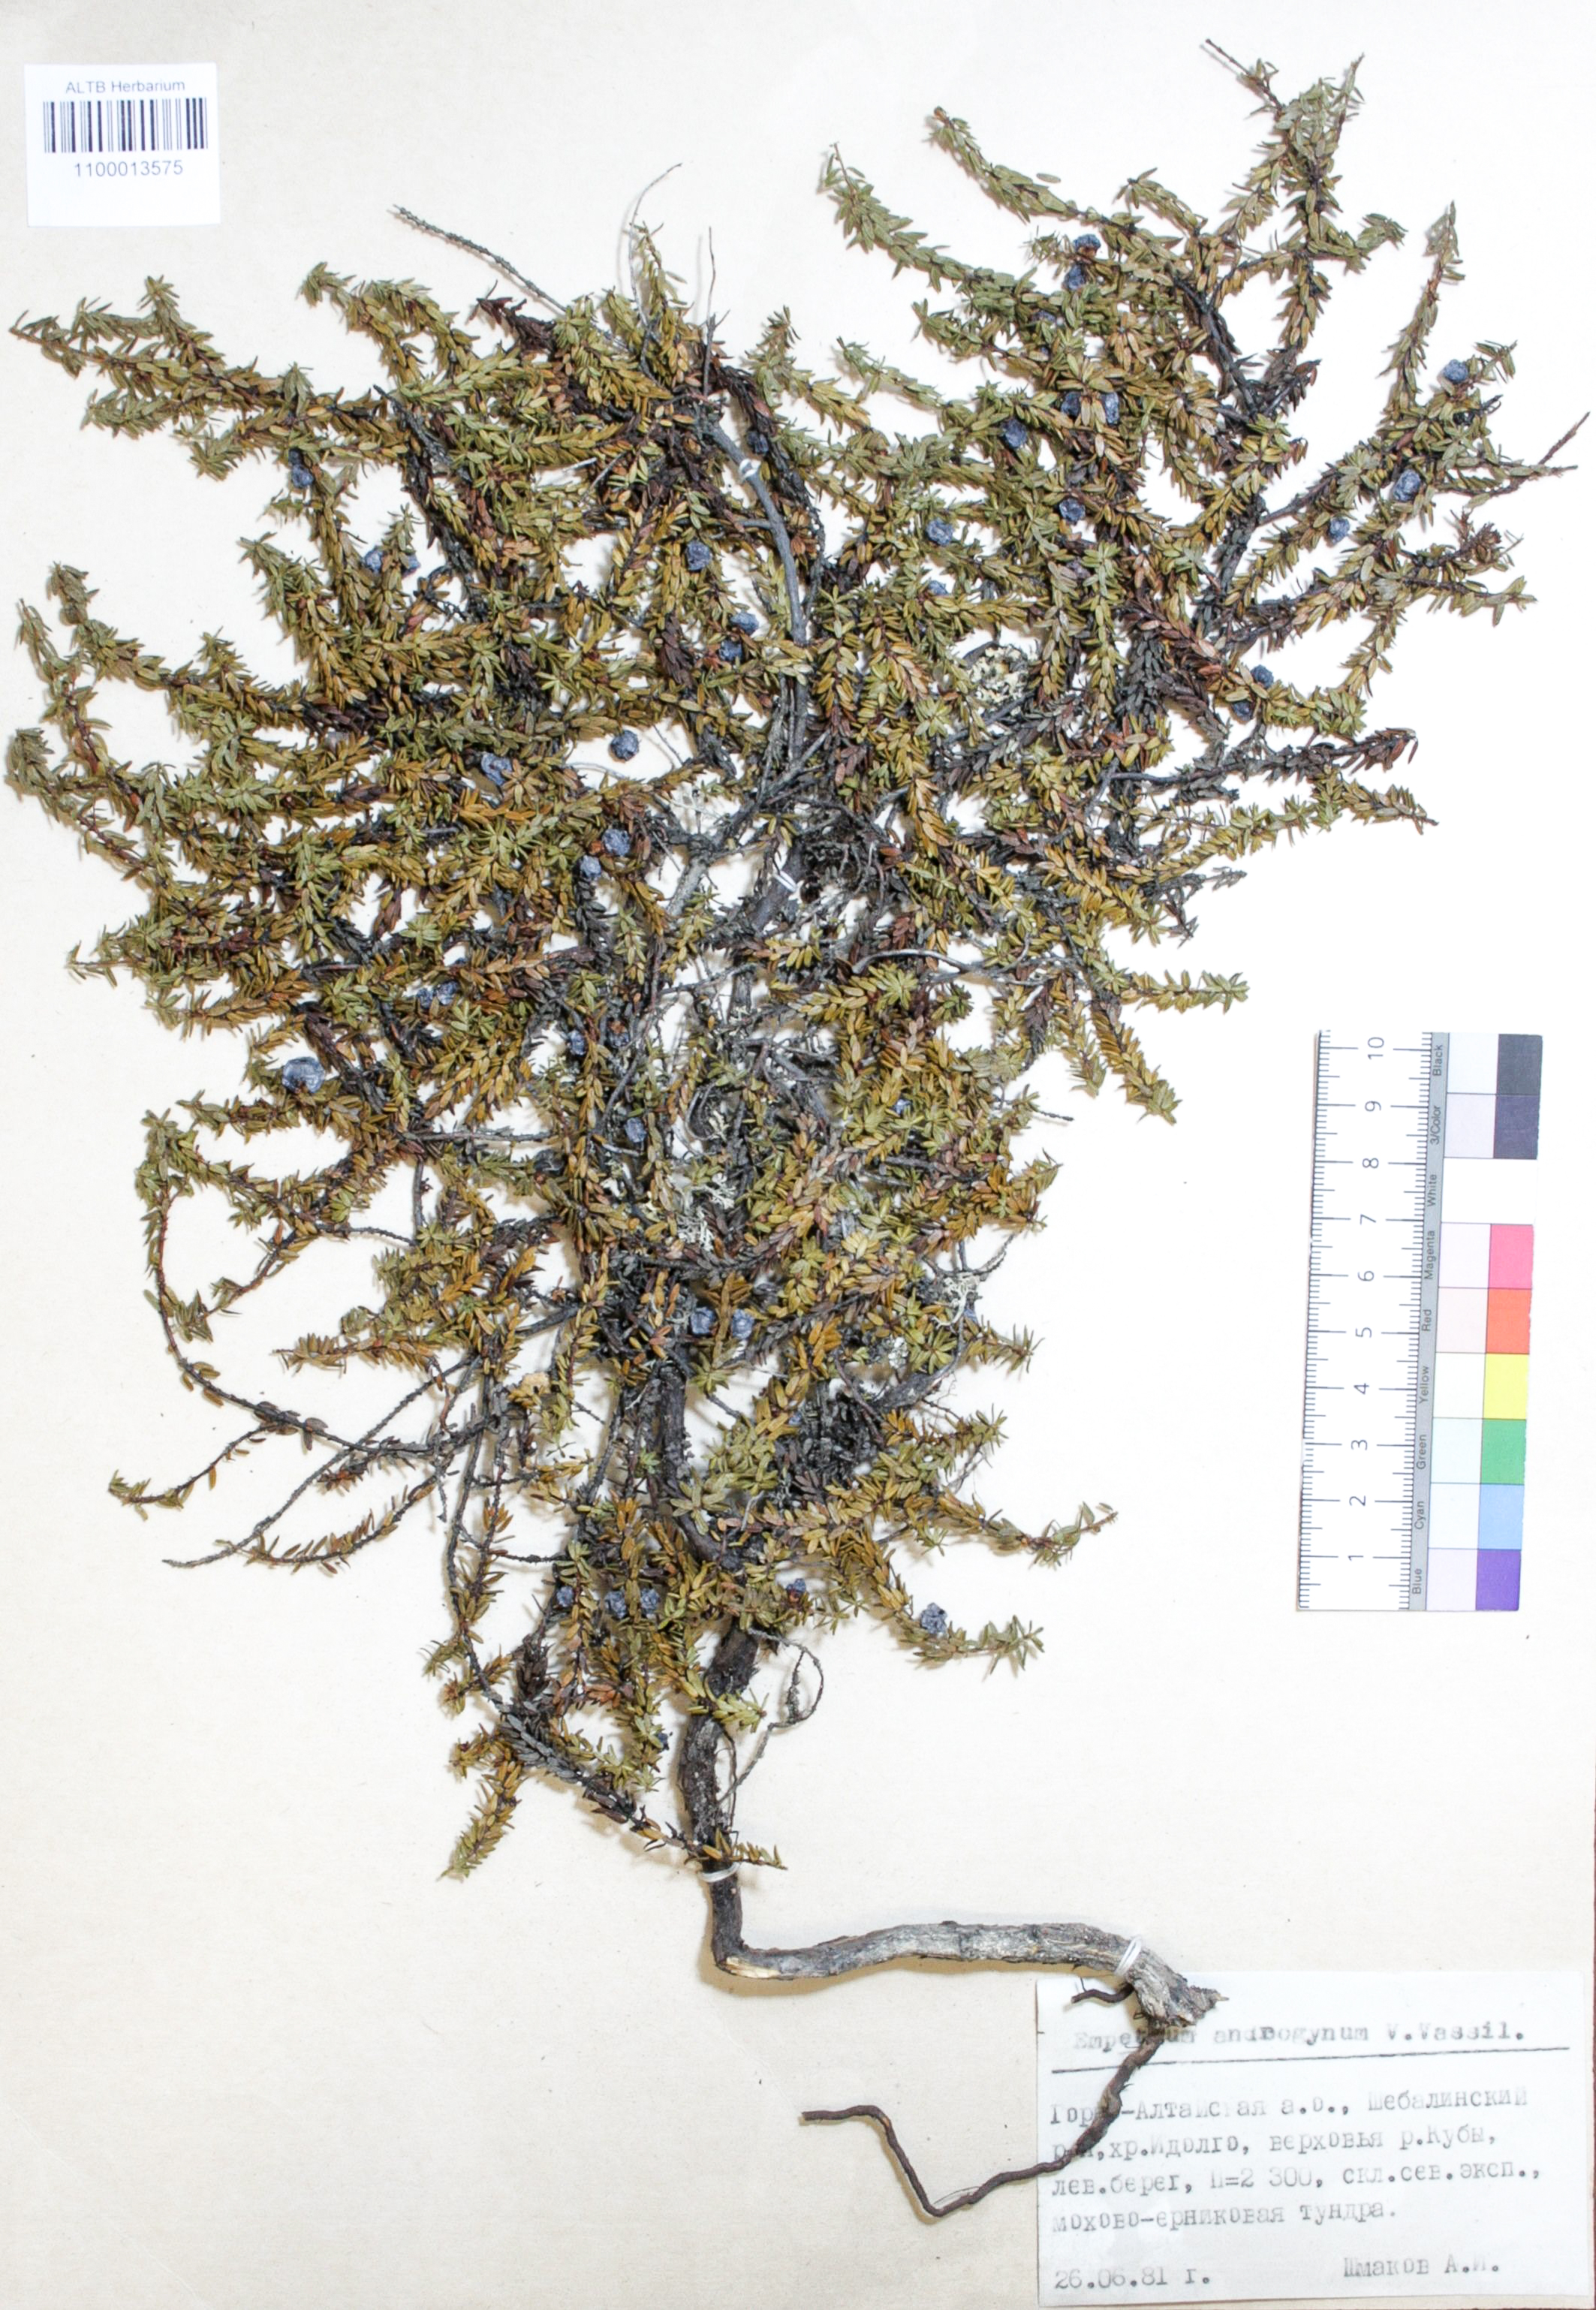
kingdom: Plantae
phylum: Tracheophyta
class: Magnoliopsida
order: Ericales
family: Ericaceae
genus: Empetrum
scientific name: Empetrum nigrum
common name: Black crowberry
